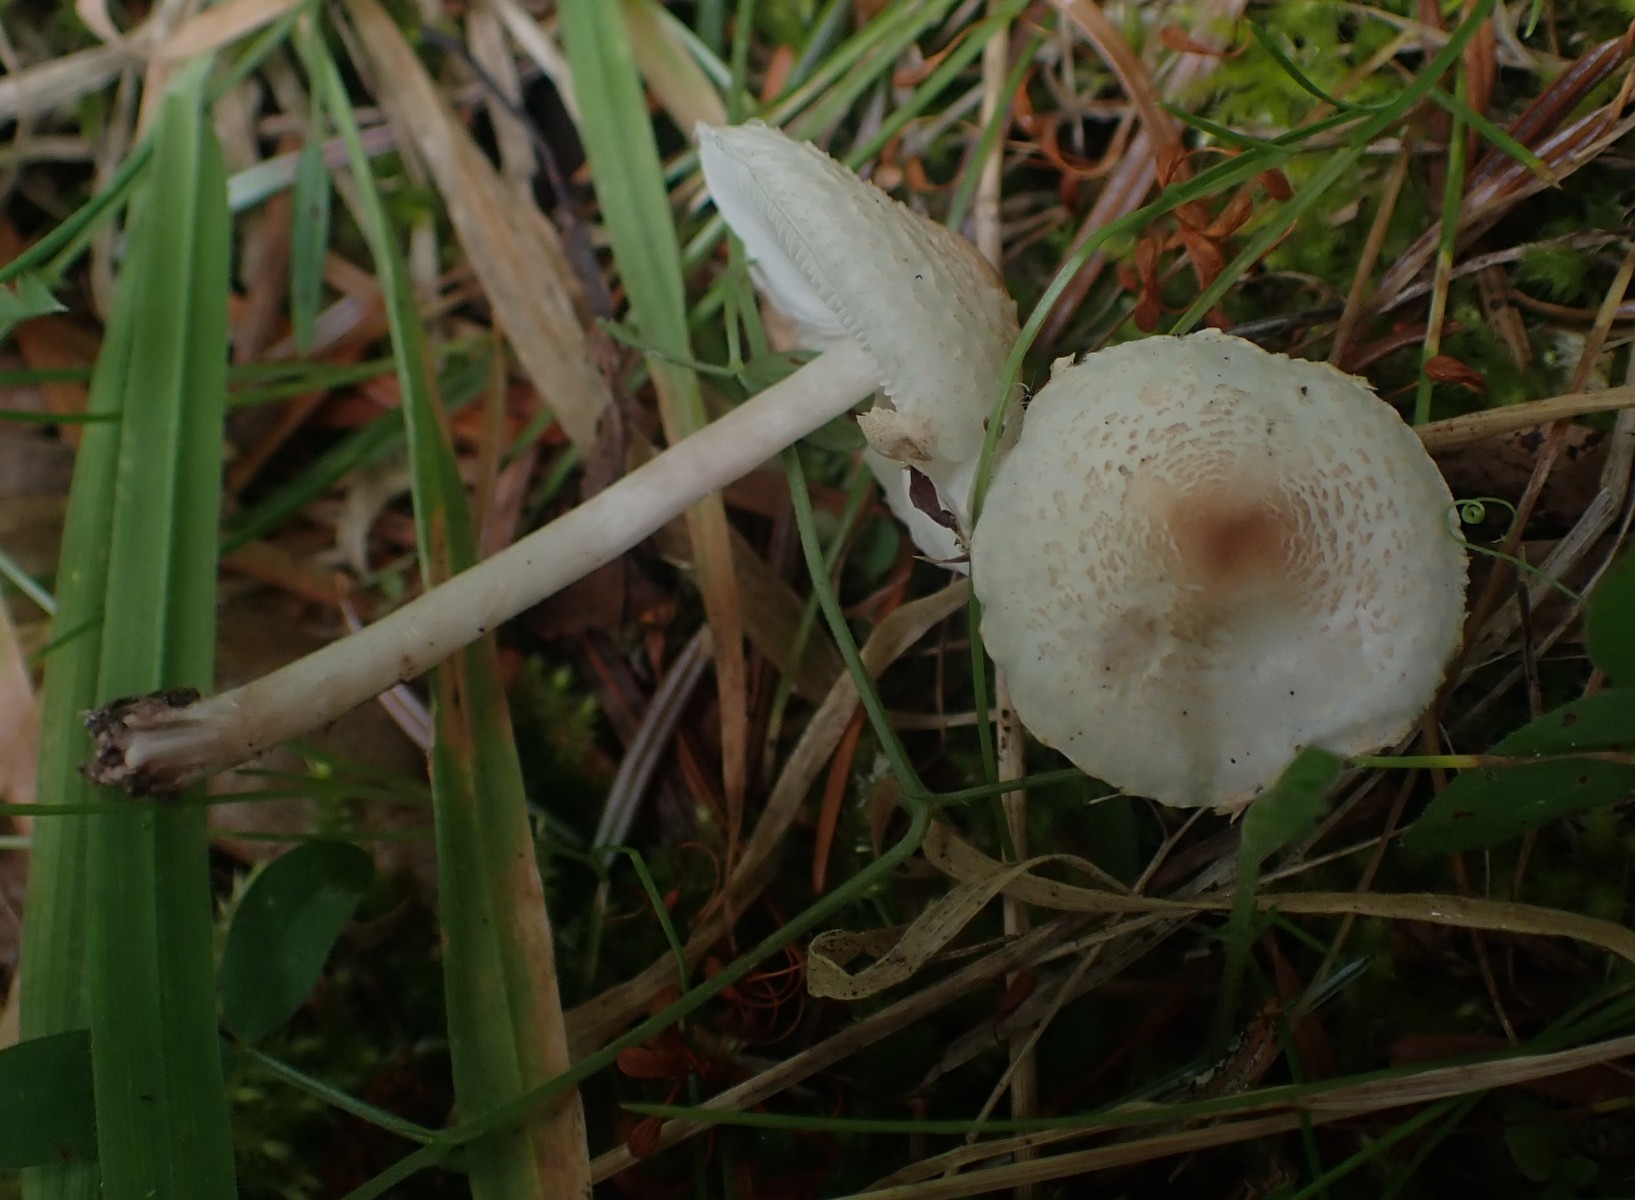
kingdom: Fungi
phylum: Basidiomycota
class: Agaricomycetes
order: Agaricales
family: Agaricaceae
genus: Lepiota
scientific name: Lepiota cristata
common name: stinkende parasolhat
